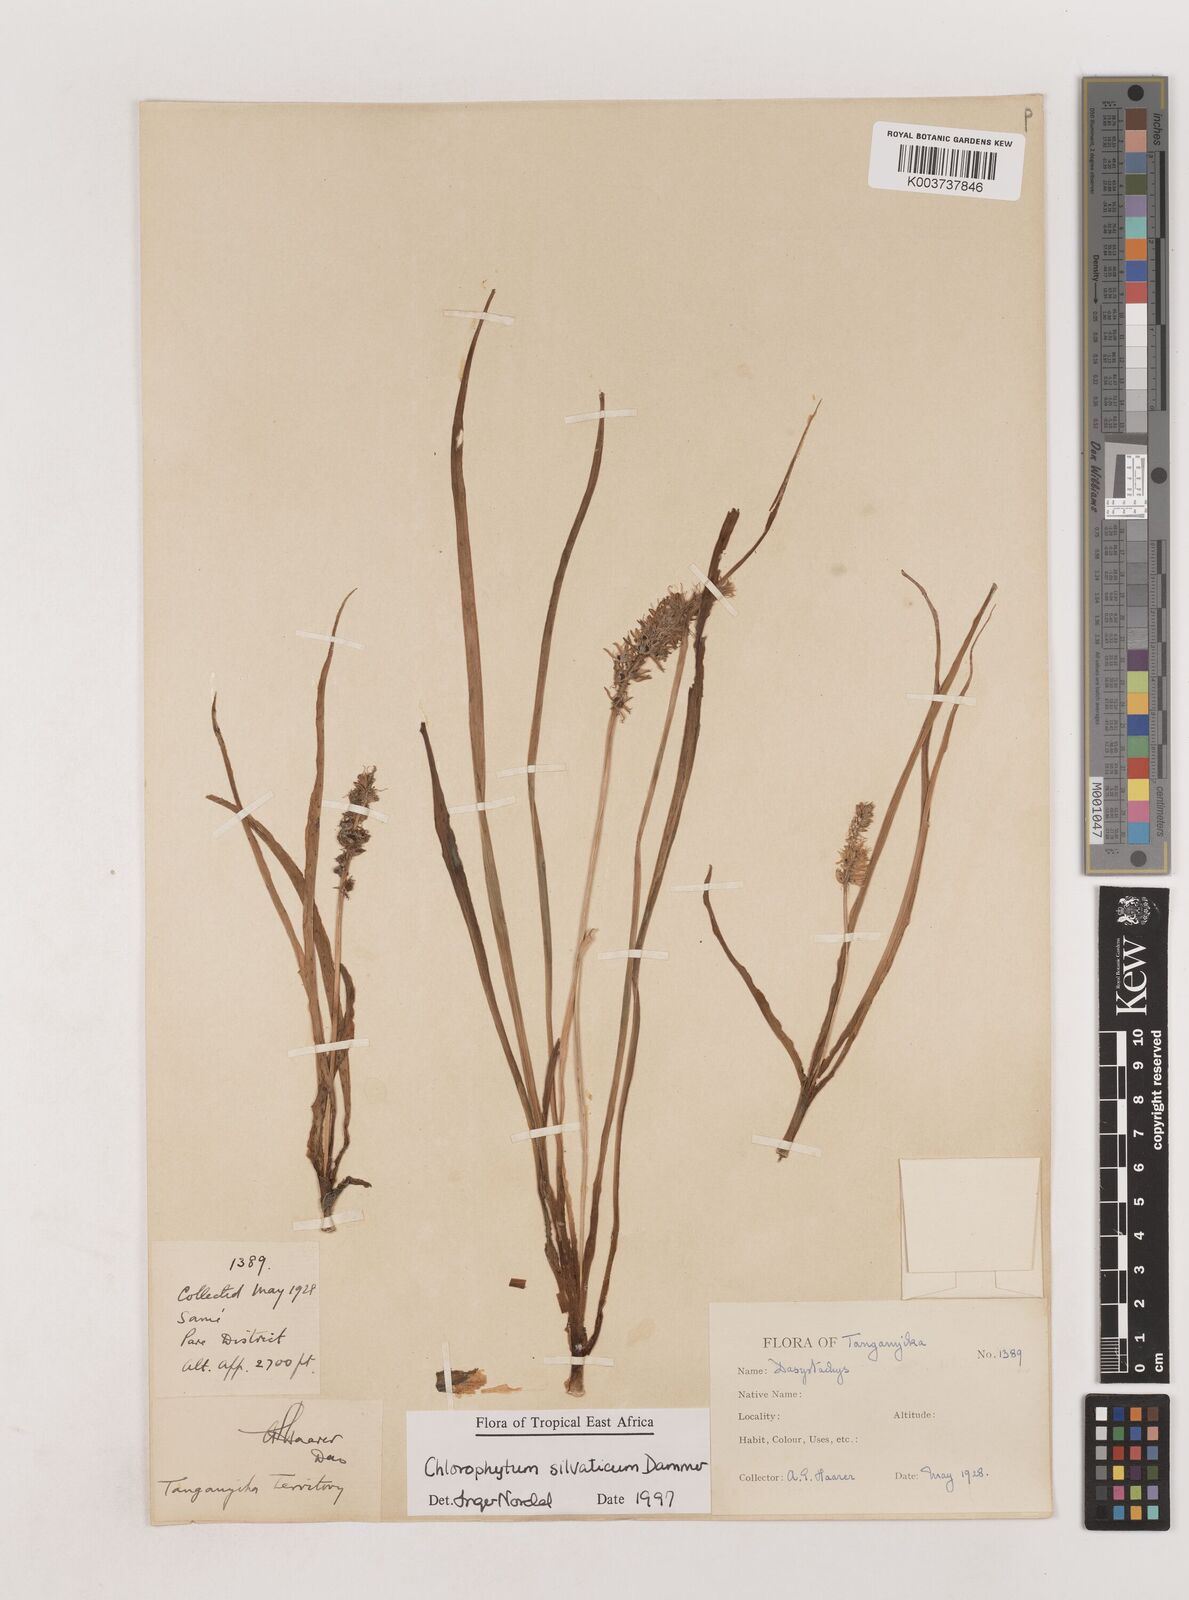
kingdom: Plantae
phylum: Tracheophyta
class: Liliopsida
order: Asparagales
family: Asparagaceae
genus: Chlorophytum
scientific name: Chlorophytum africanum
